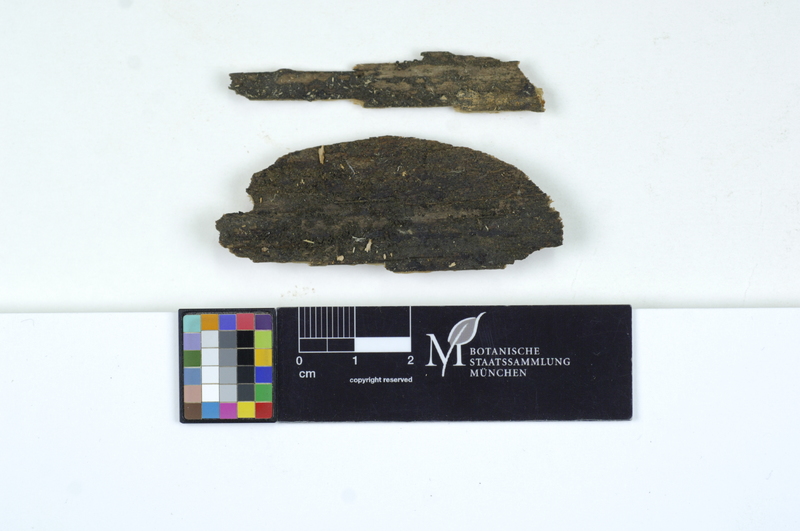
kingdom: Fungi
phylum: Basidiomycota
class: Dacrymycetes
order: Dacrymycetales
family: Cerinomycetaceae
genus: Cerinomyces
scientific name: Cerinomyces enatus
